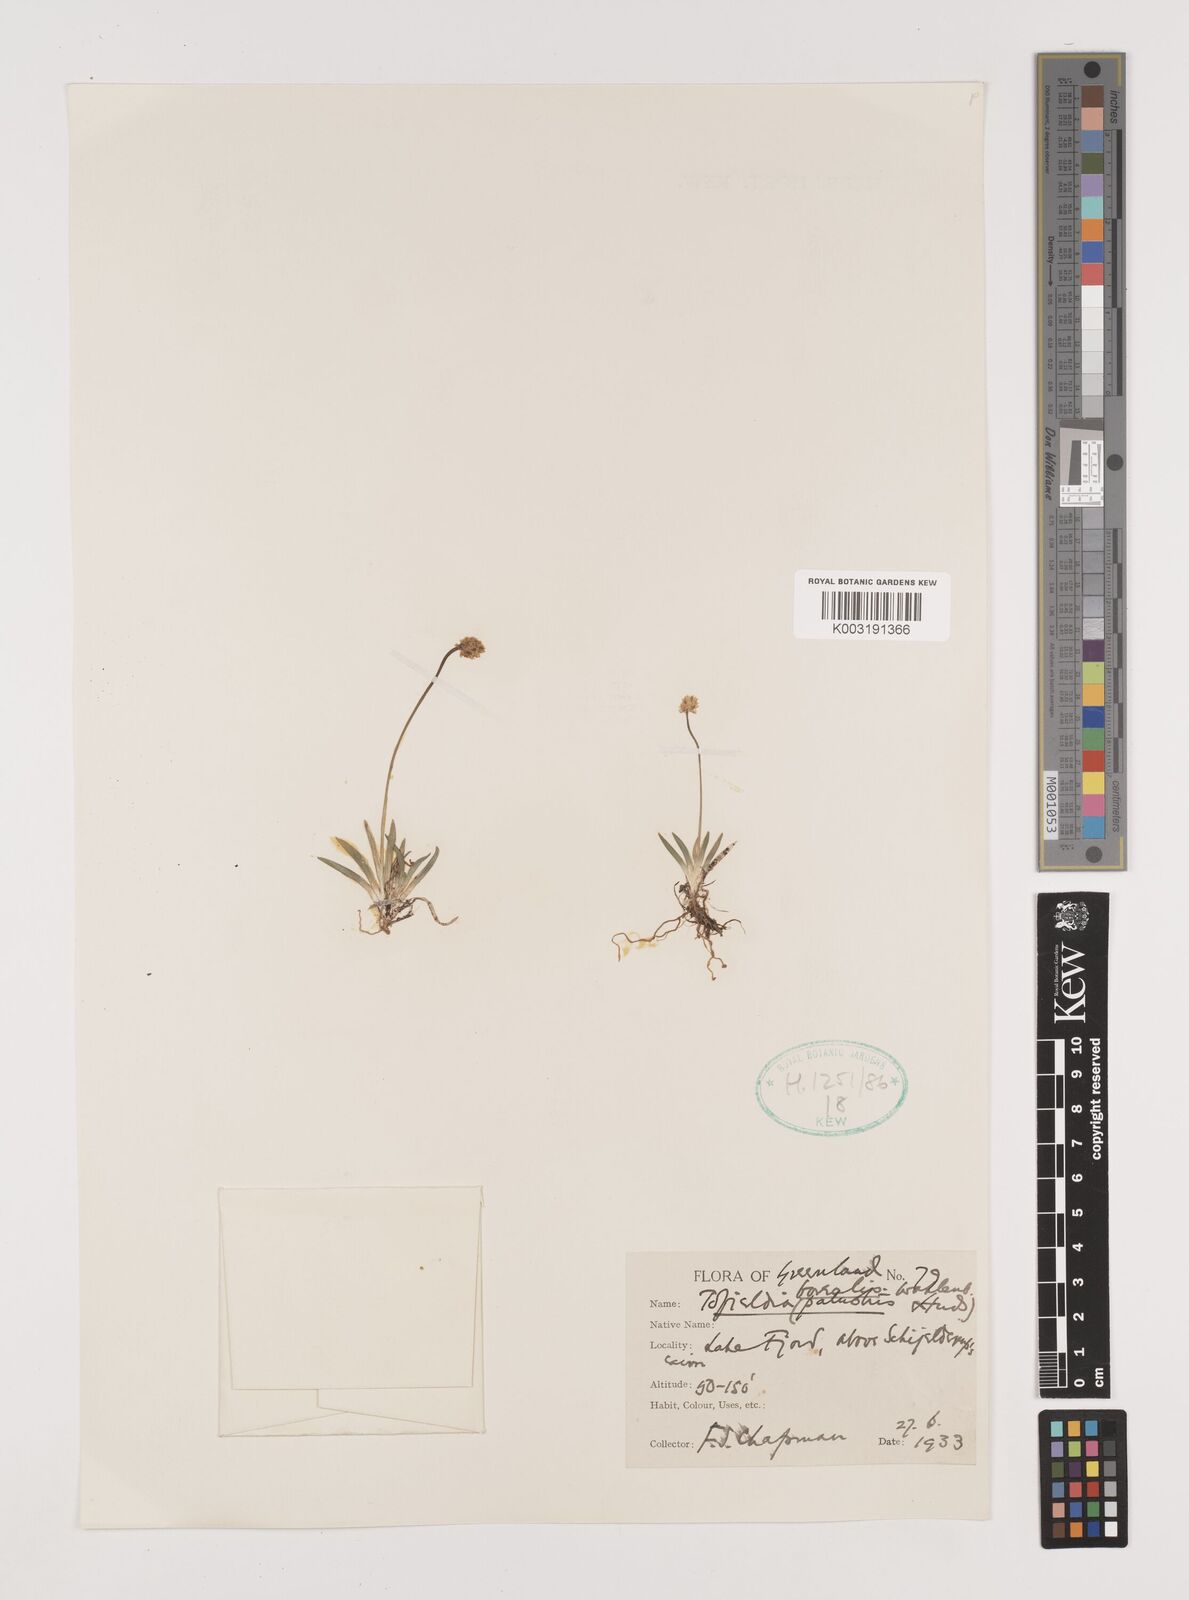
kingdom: Plantae
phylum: Tracheophyta
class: Liliopsida
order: Alismatales
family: Tofieldiaceae
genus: Tofieldia
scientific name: Tofieldia pusilla
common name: Scottish false asphodel
